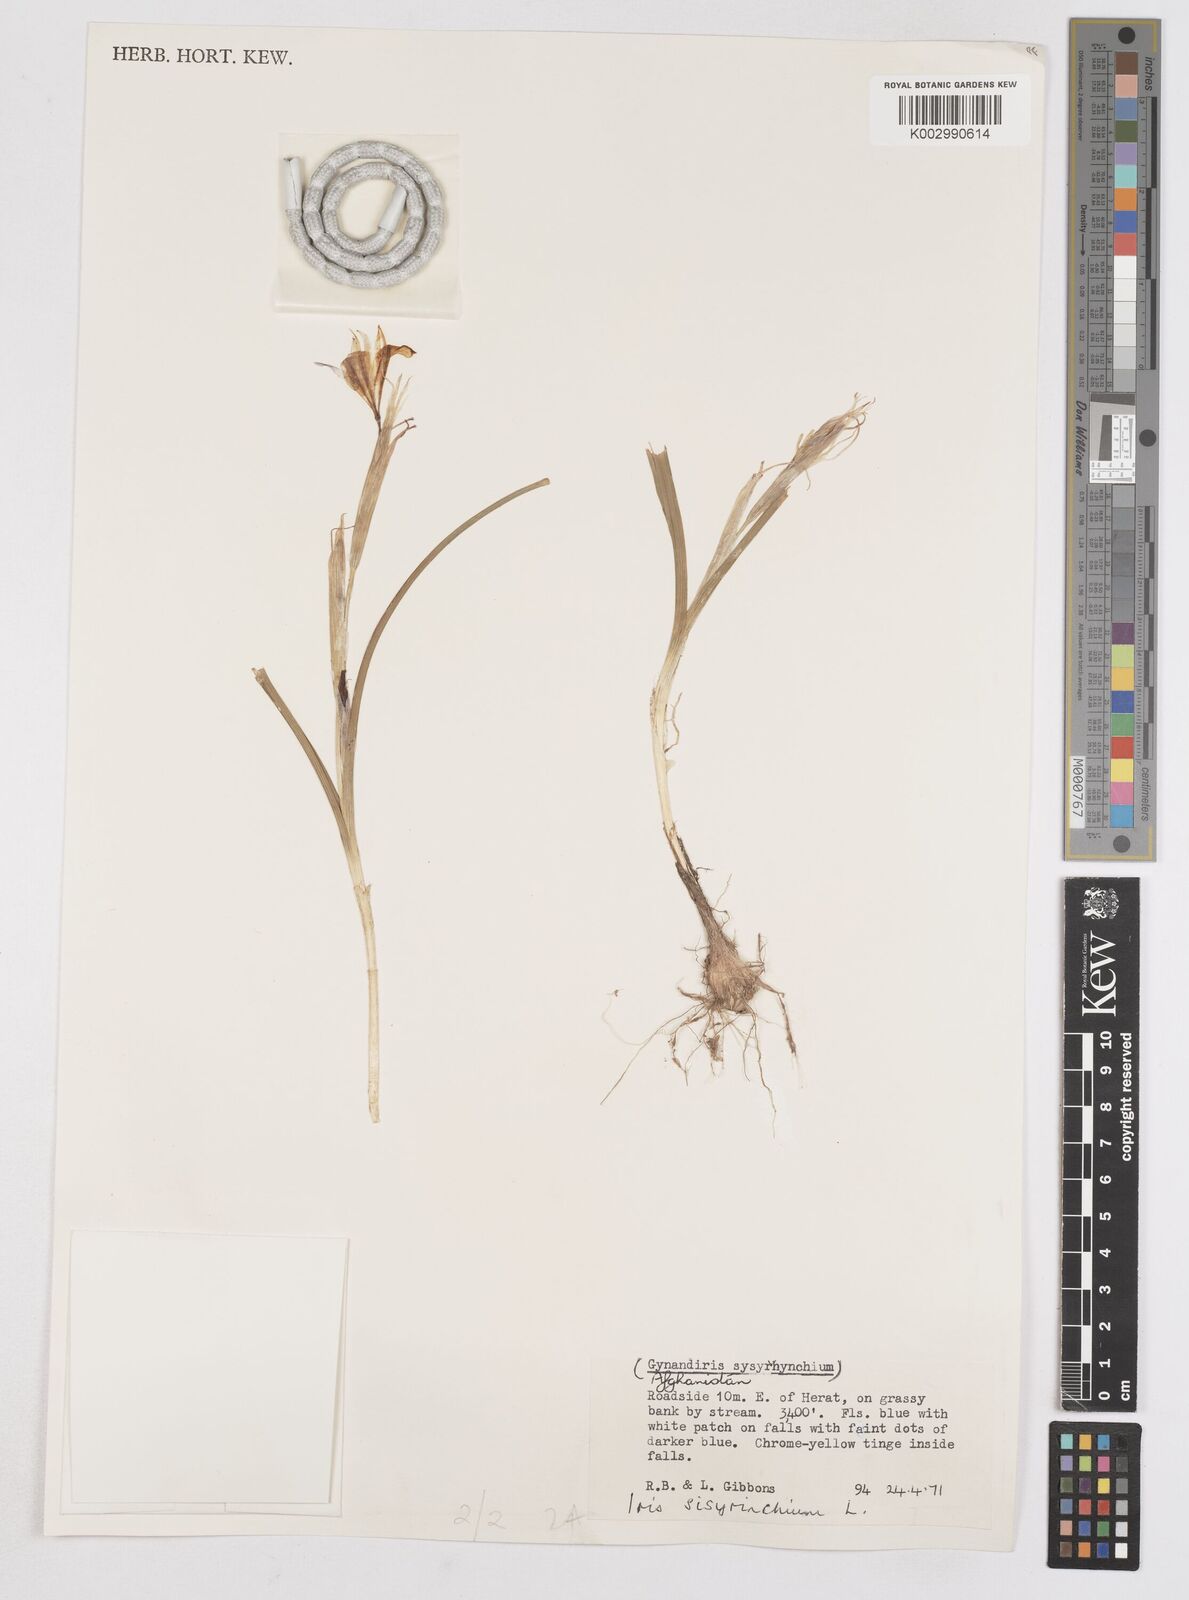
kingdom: Plantae
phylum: Tracheophyta
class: Liliopsida
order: Asparagales
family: Iridaceae
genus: Moraea
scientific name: Moraea sisyrinchium
